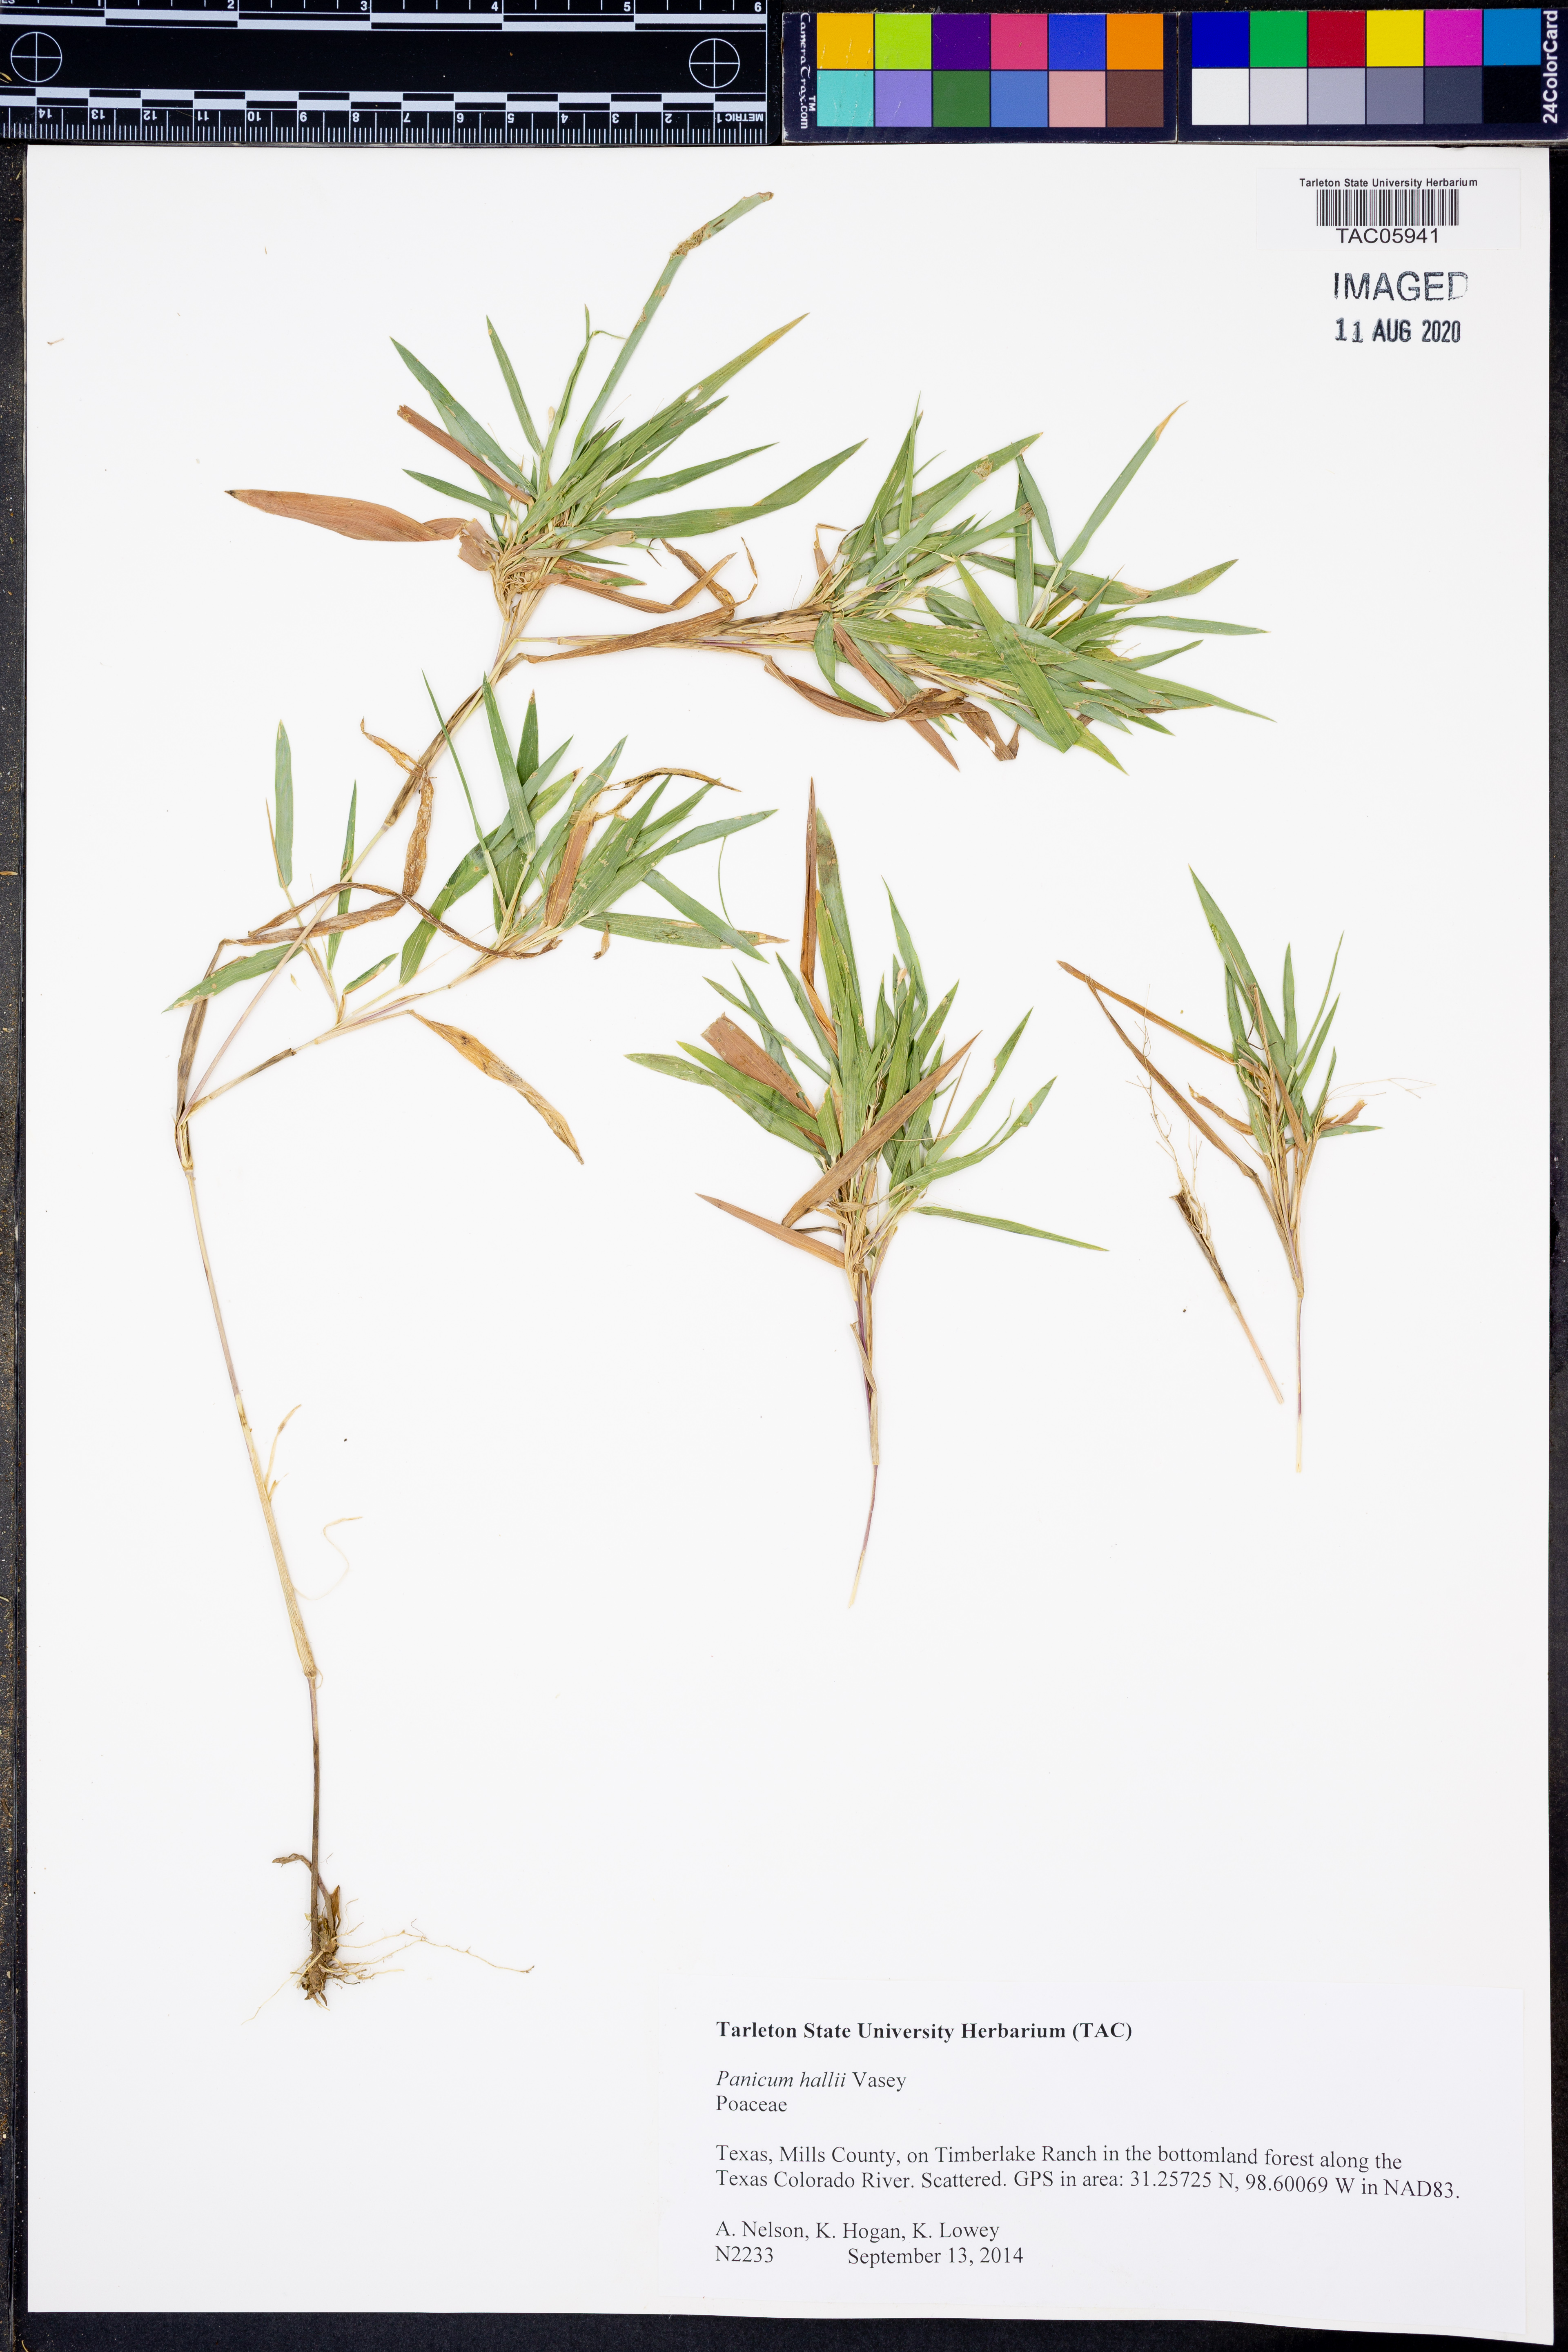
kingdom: Plantae
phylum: Tracheophyta
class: Liliopsida
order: Poales
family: Poaceae
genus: Panicum
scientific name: Panicum hallii
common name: Hall's witchgrass
